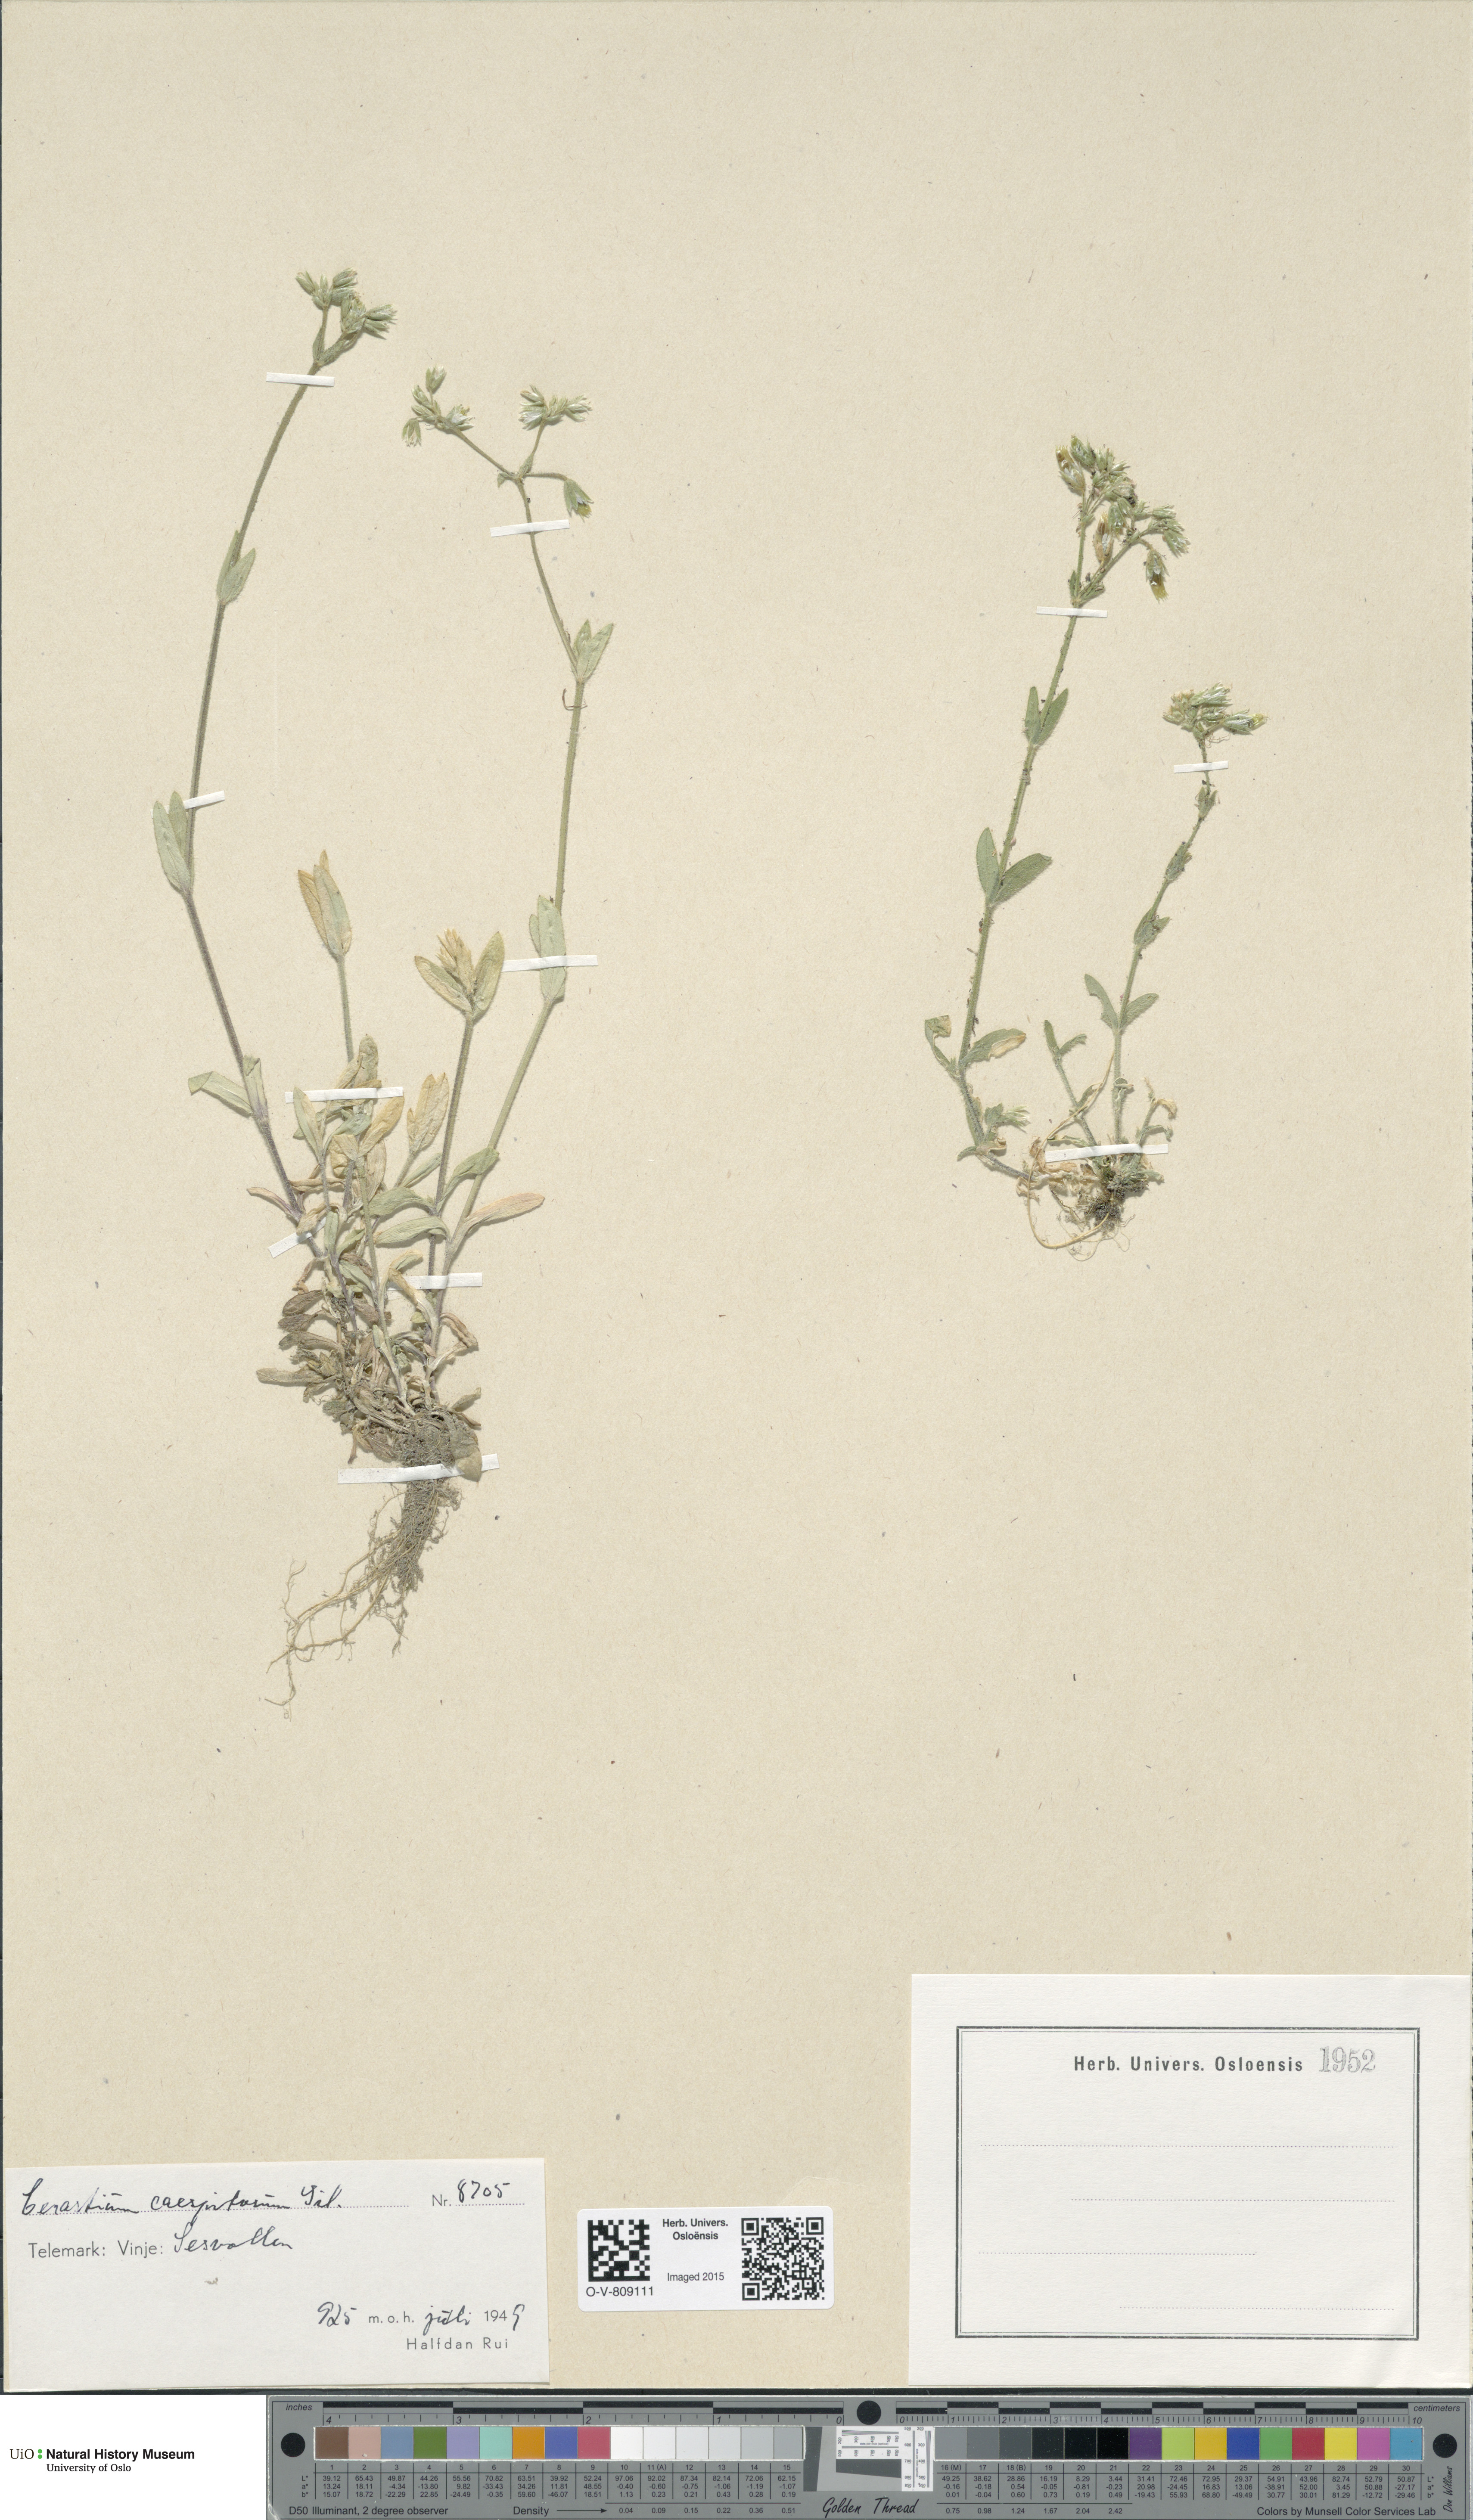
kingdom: Plantae
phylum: Tracheophyta
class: Magnoliopsida
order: Caryophyllales
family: Caryophyllaceae
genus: Cerastium
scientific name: Cerastium holosteoides
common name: Big chickweed
